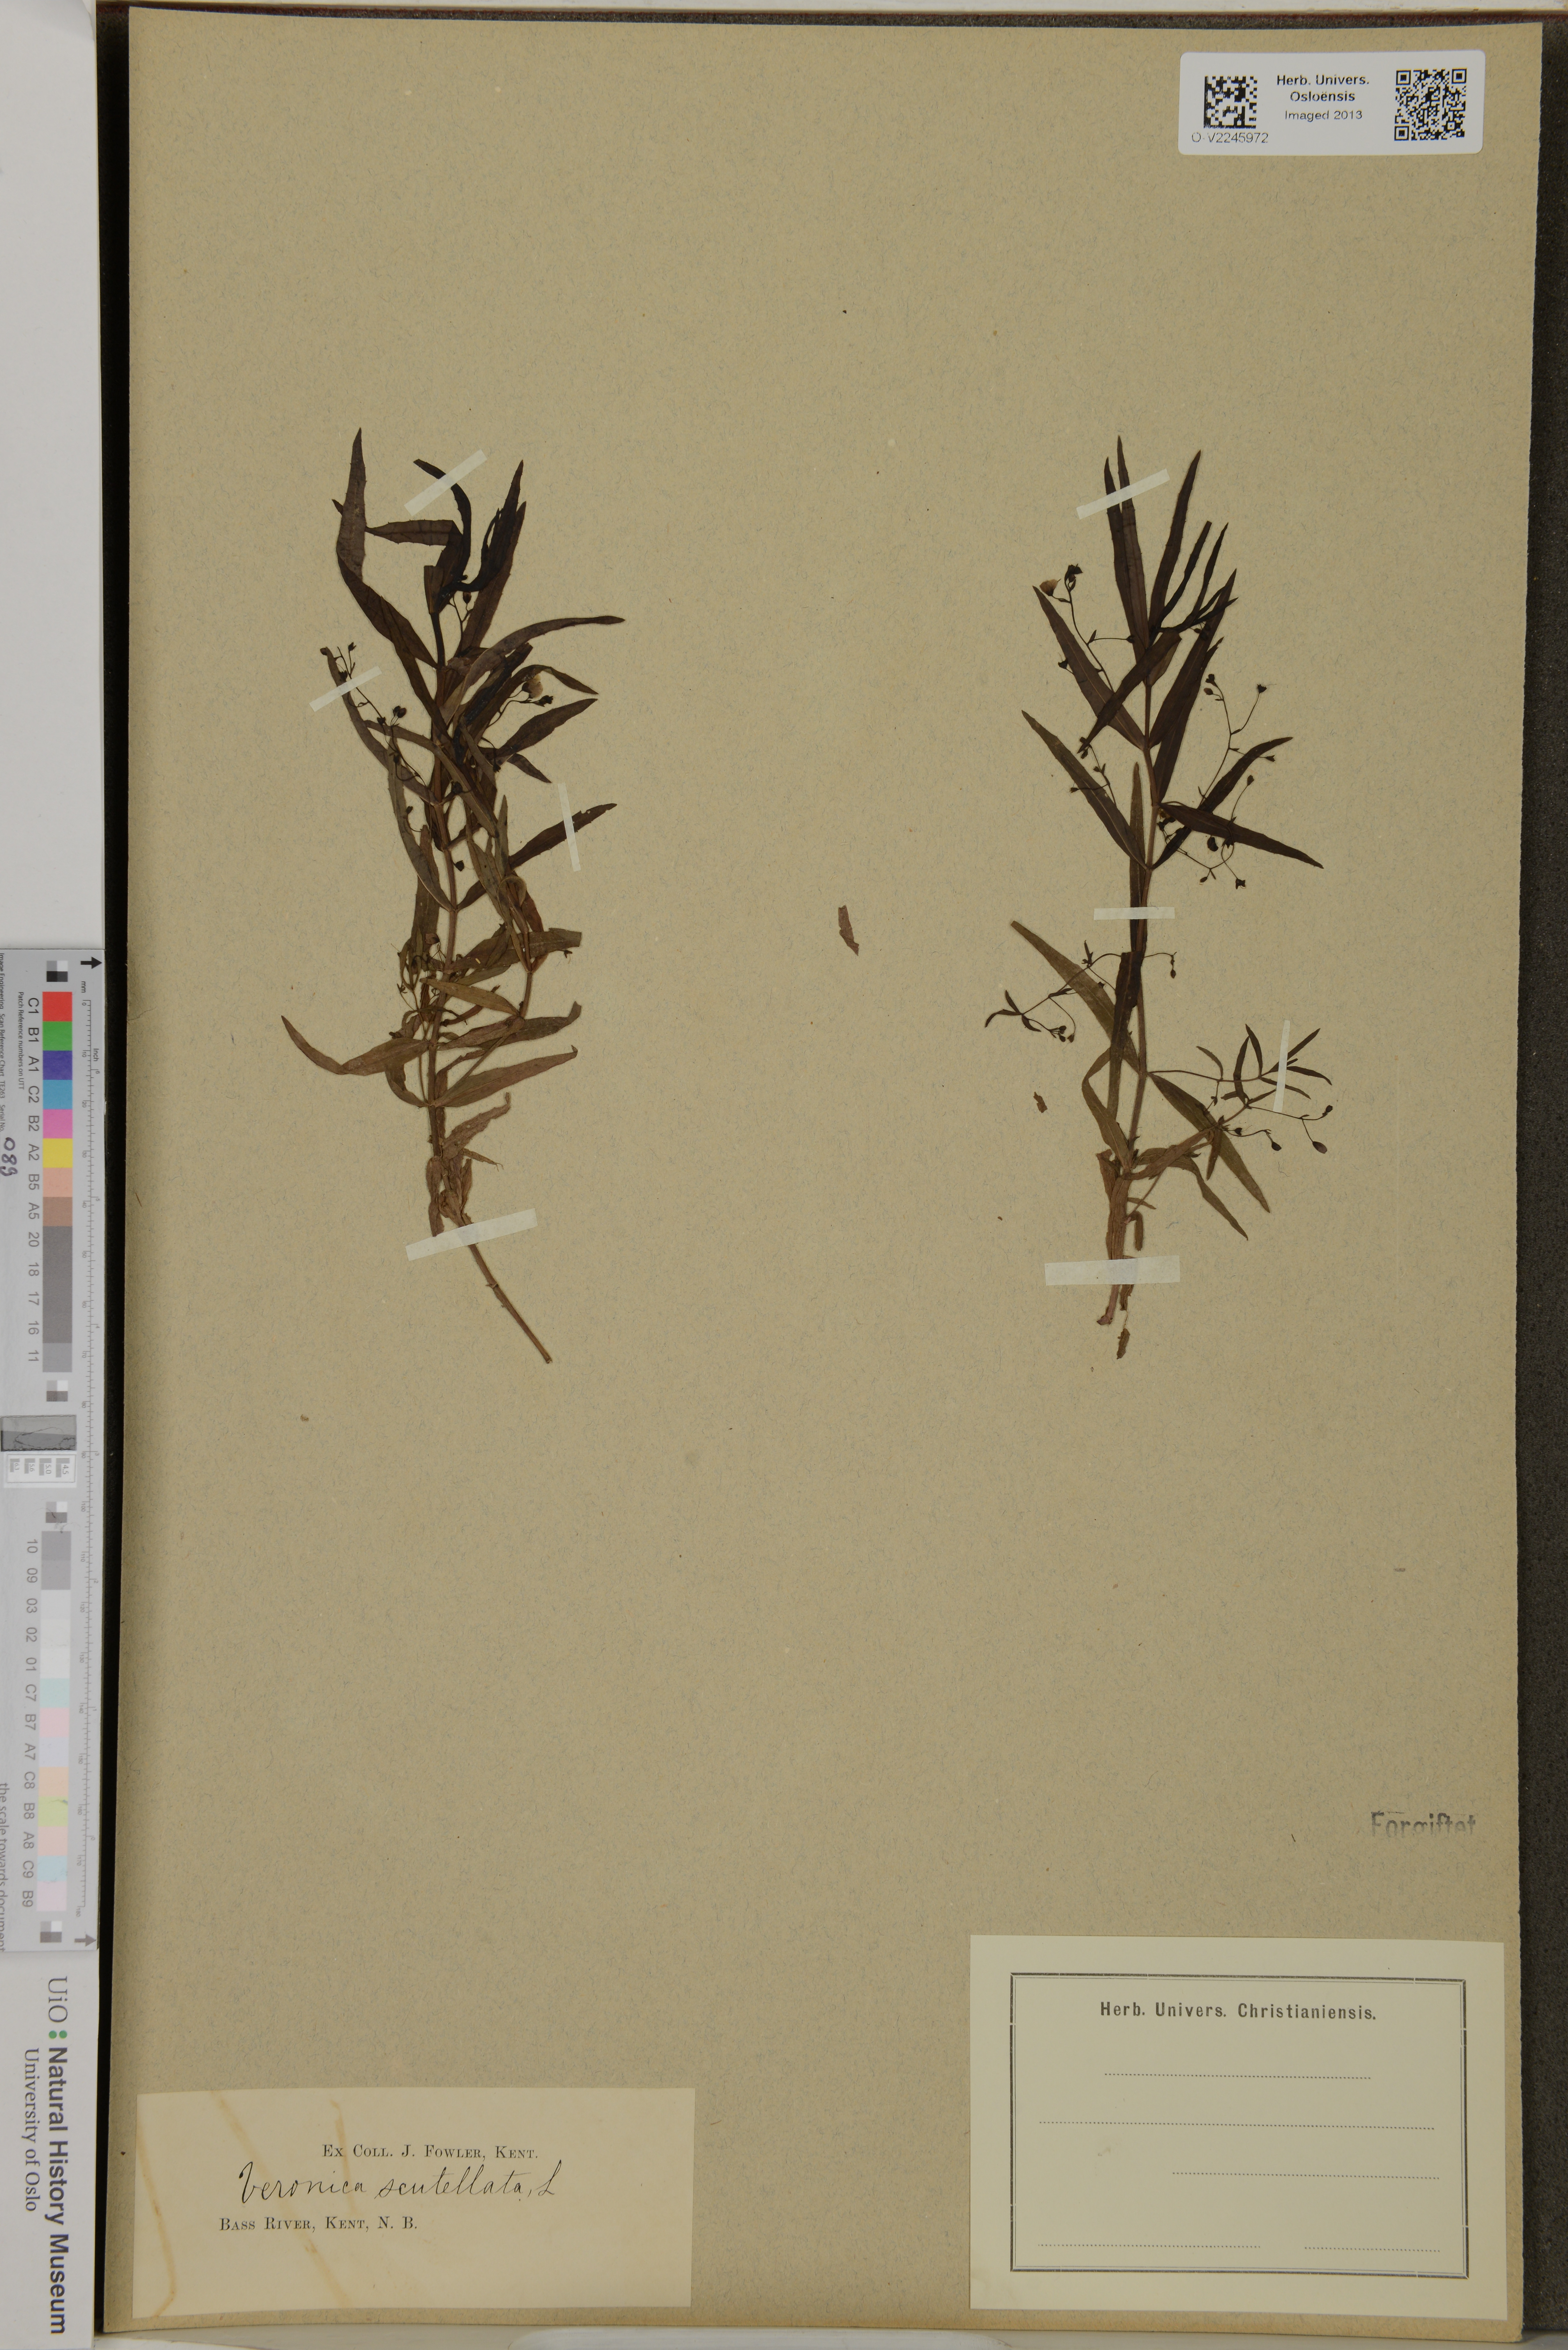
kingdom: Plantae
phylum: Tracheophyta
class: Magnoliopsida
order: Lamiales
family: Plantaginaceae
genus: Veronica
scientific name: Veronica scutellata
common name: Marsh speedwell
